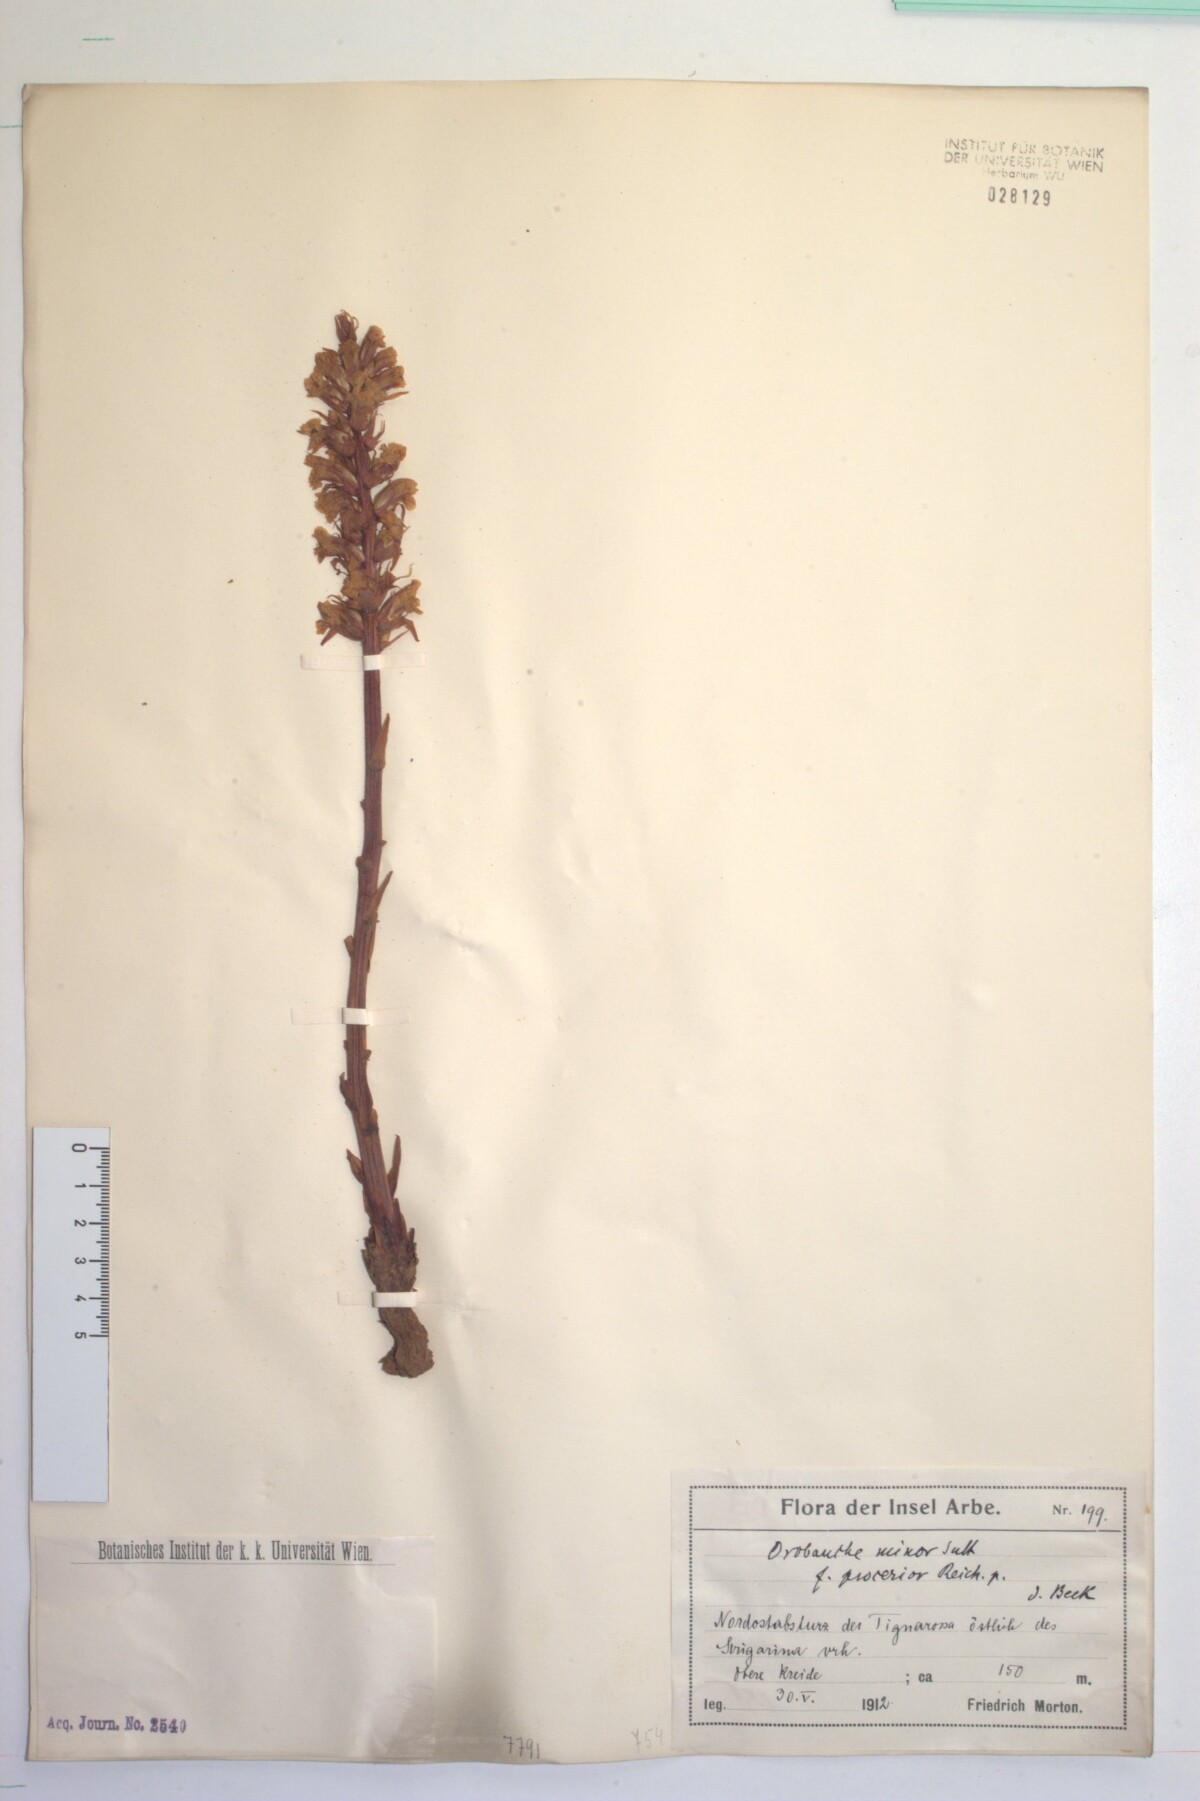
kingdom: Plantae
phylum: Tracheophyta
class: Magnoliopsida
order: Lamiales
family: Orobanchaceae
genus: Orobanche
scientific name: Orobanche minor
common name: Common broomrape
